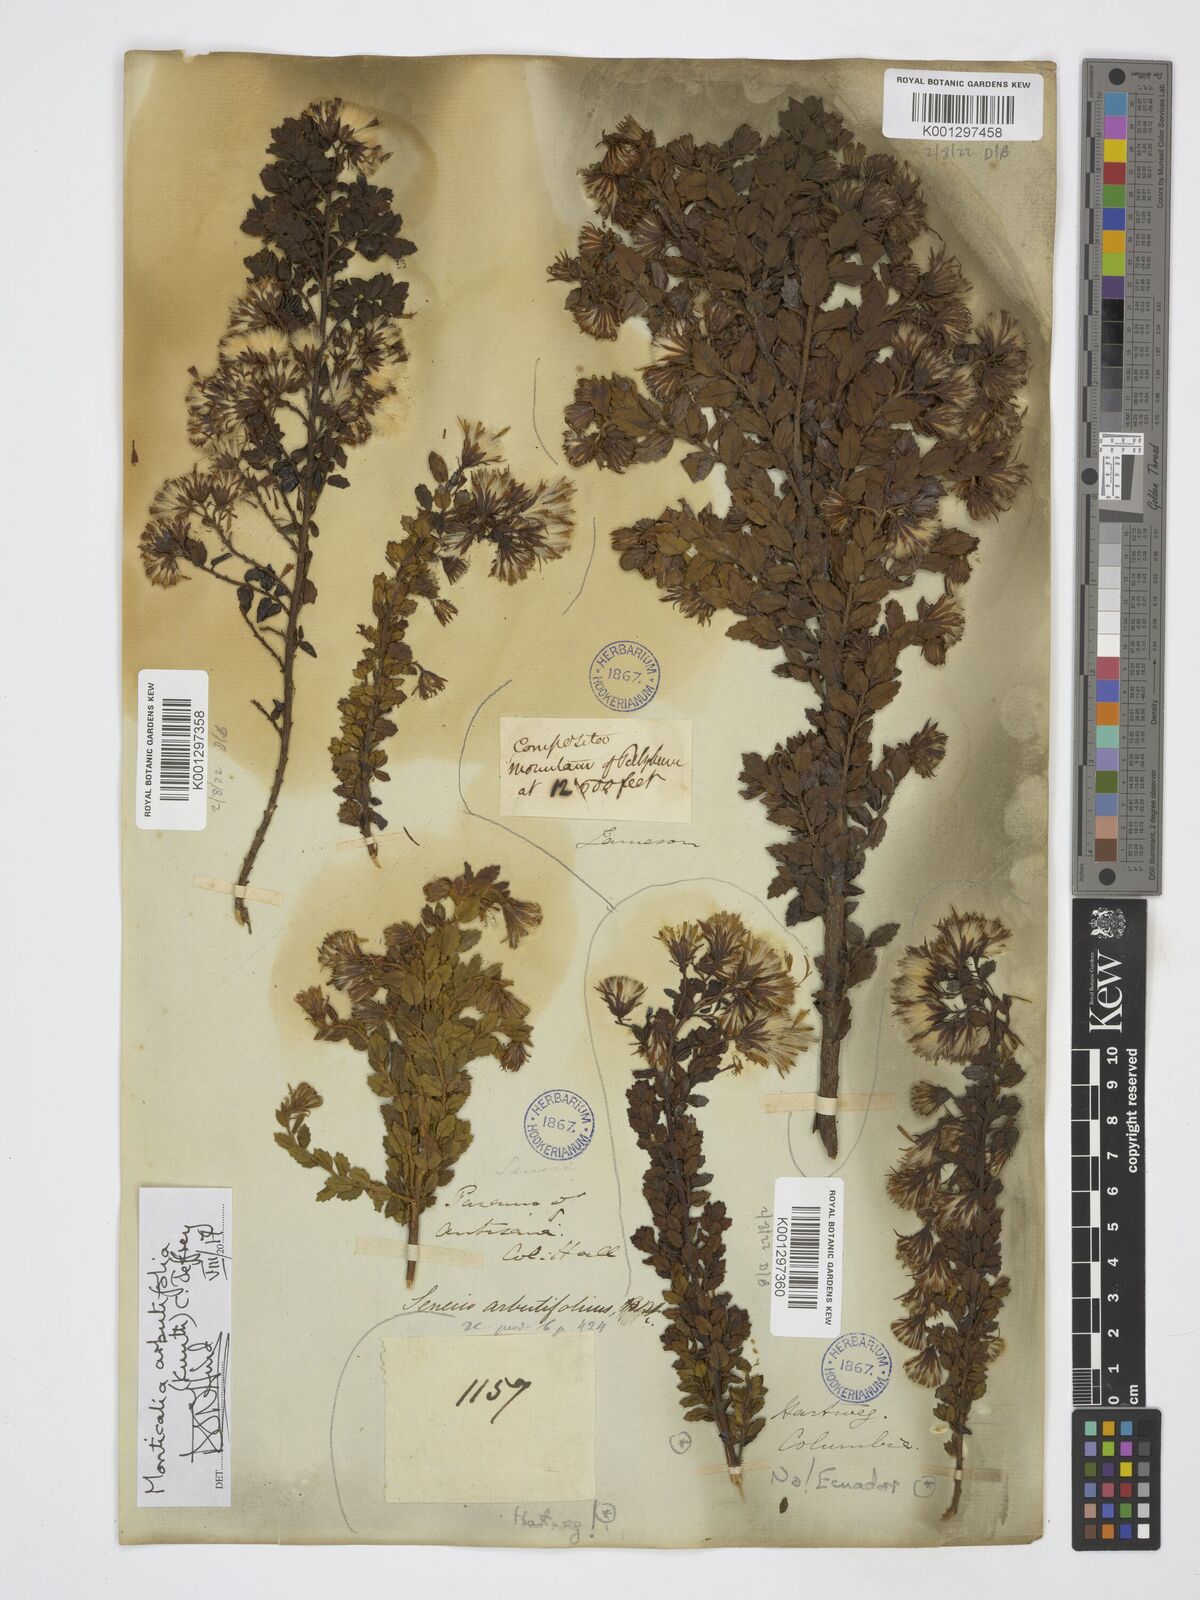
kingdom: Plantae
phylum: Tracheophyta
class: Magnoliopsida
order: Asterales
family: Asteraceae
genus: Monticalia
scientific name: Monticalia arbutifolia
